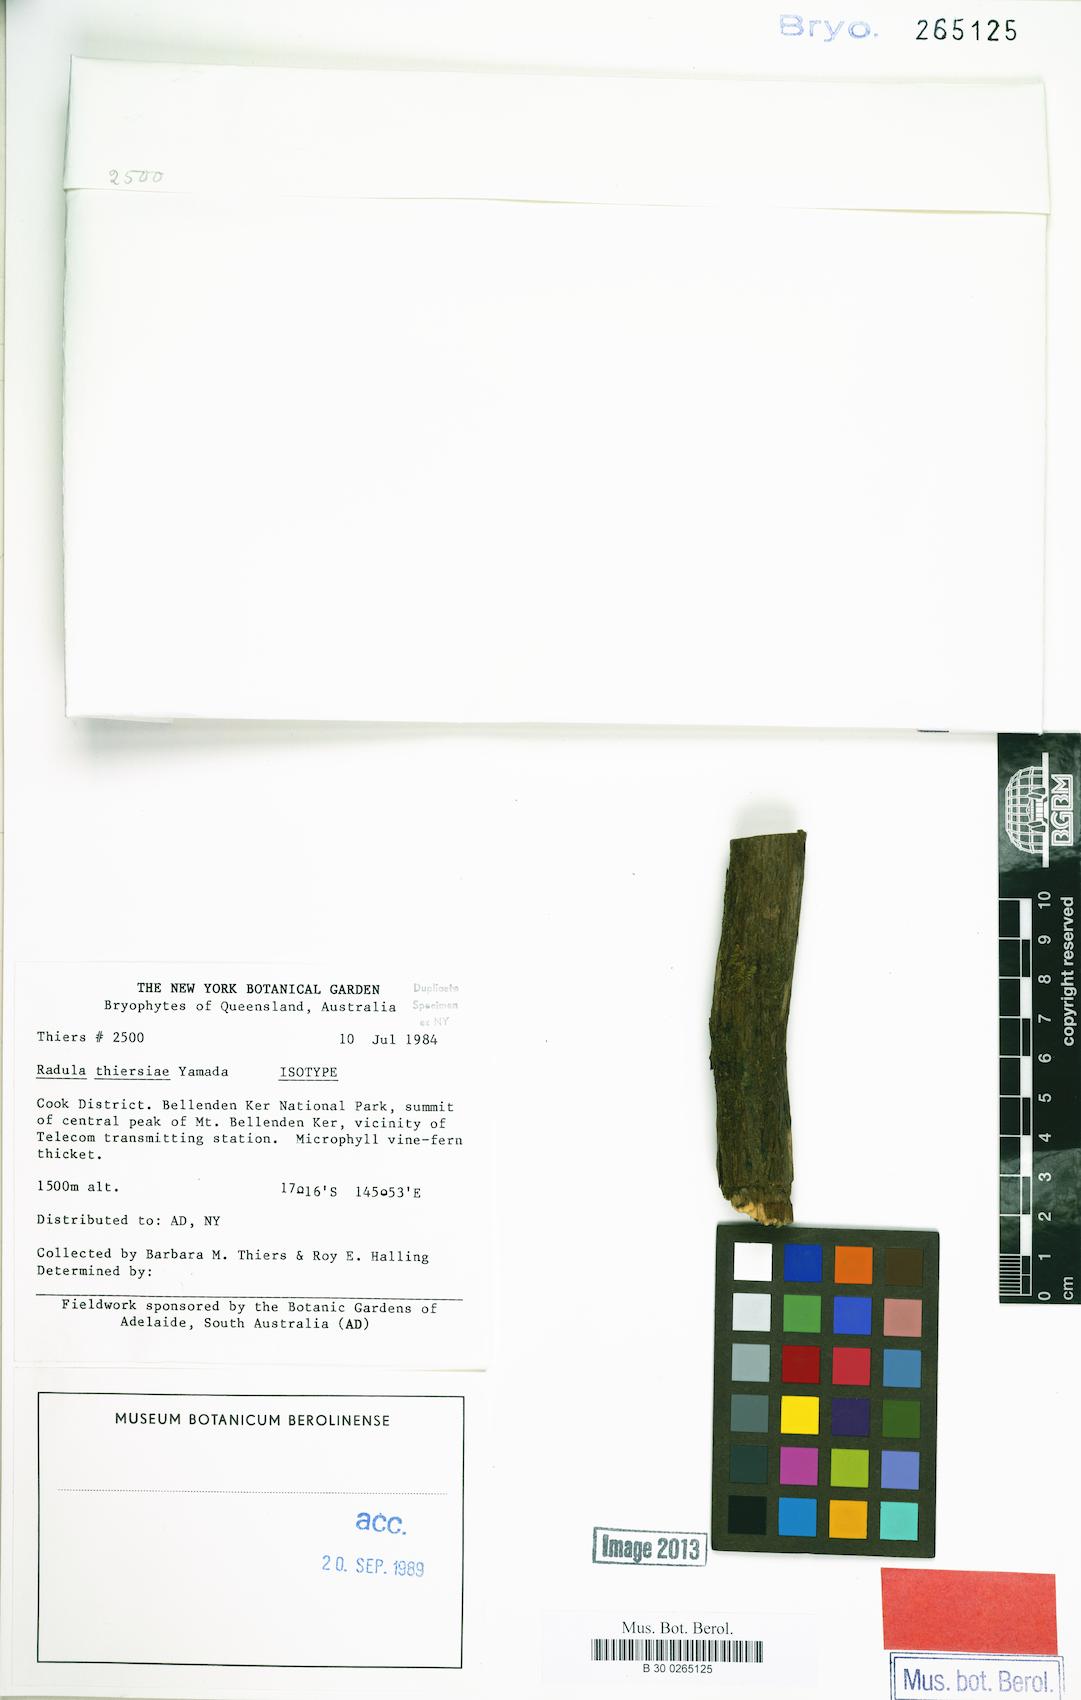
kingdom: Plantae
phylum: Marchantiophyta
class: Jungermanniopsida
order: Porellales
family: Radulaceae
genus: Radula
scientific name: Radula thiersiae
